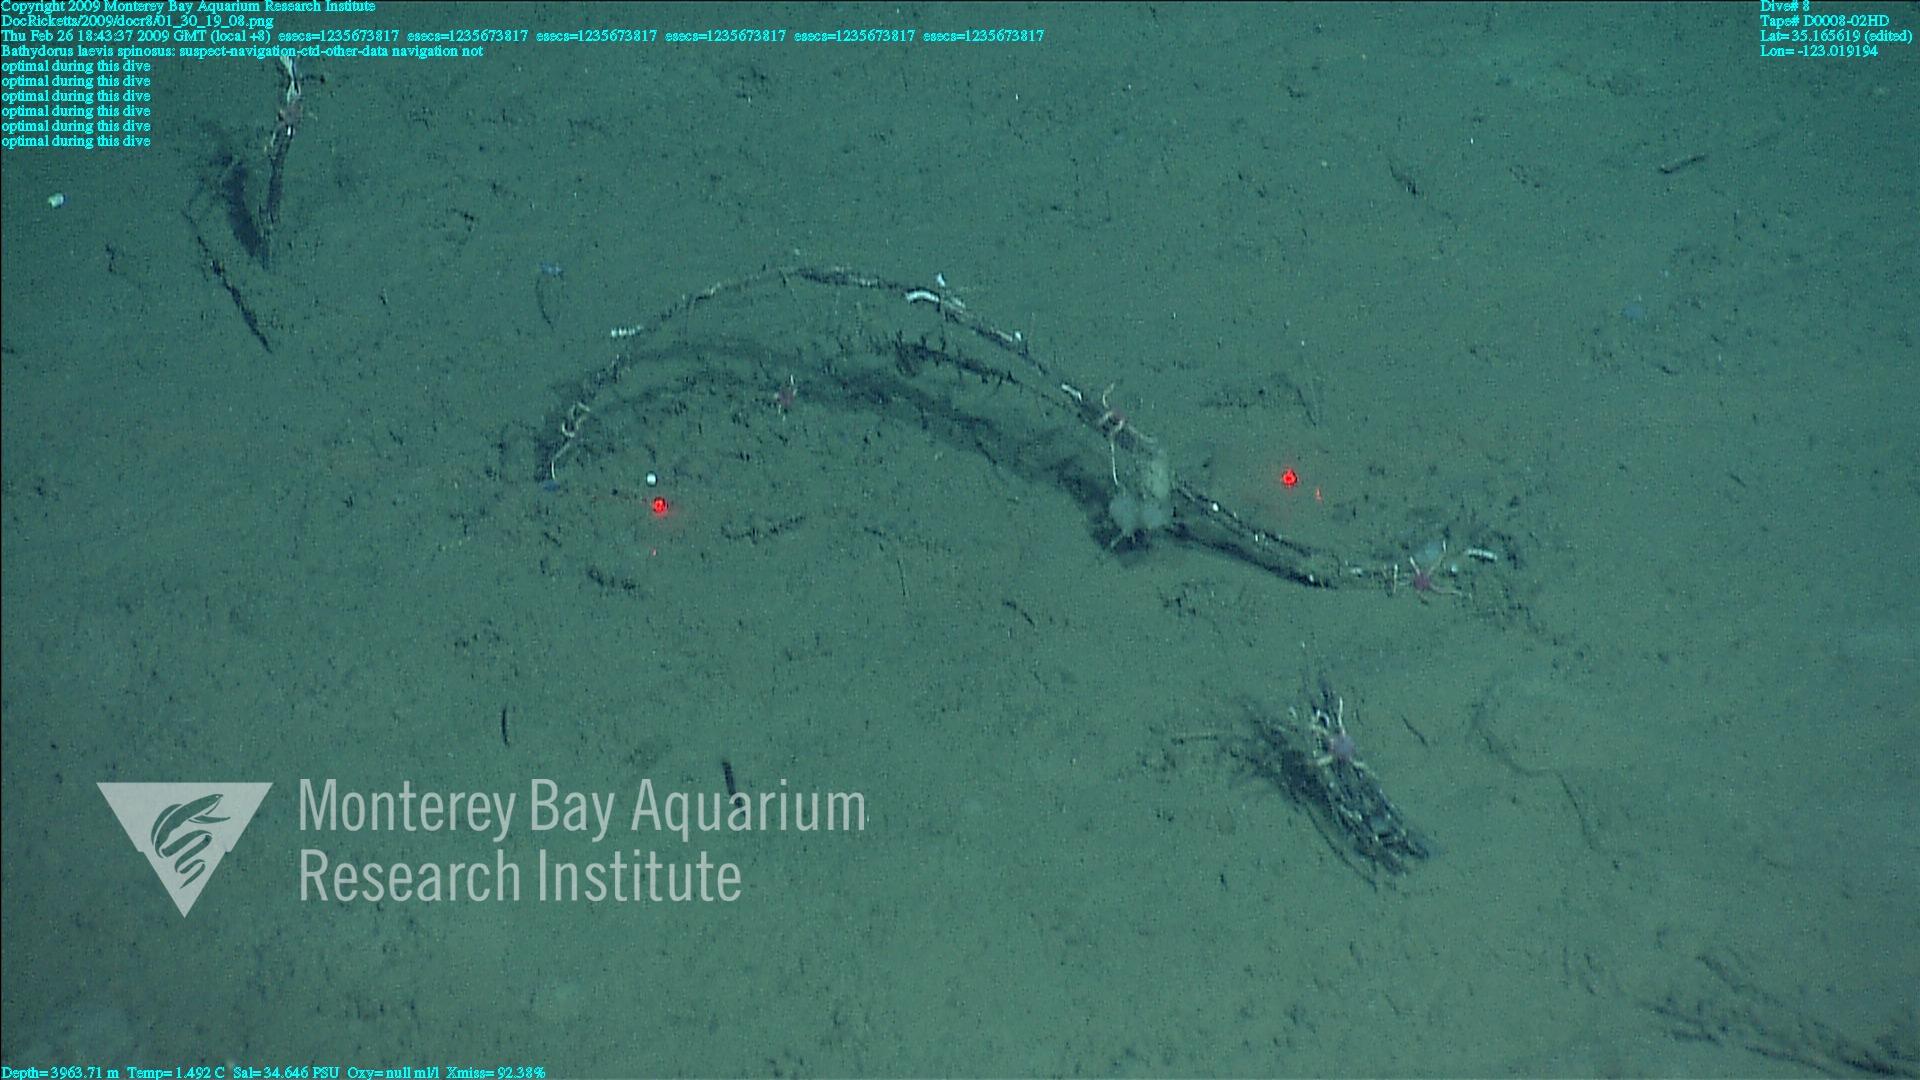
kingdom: Animalia
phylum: Porifera
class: Hexactinellida
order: Lyssacinosida
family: Rossellidae
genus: Bathydorus
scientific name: Bathydorus spinosus
